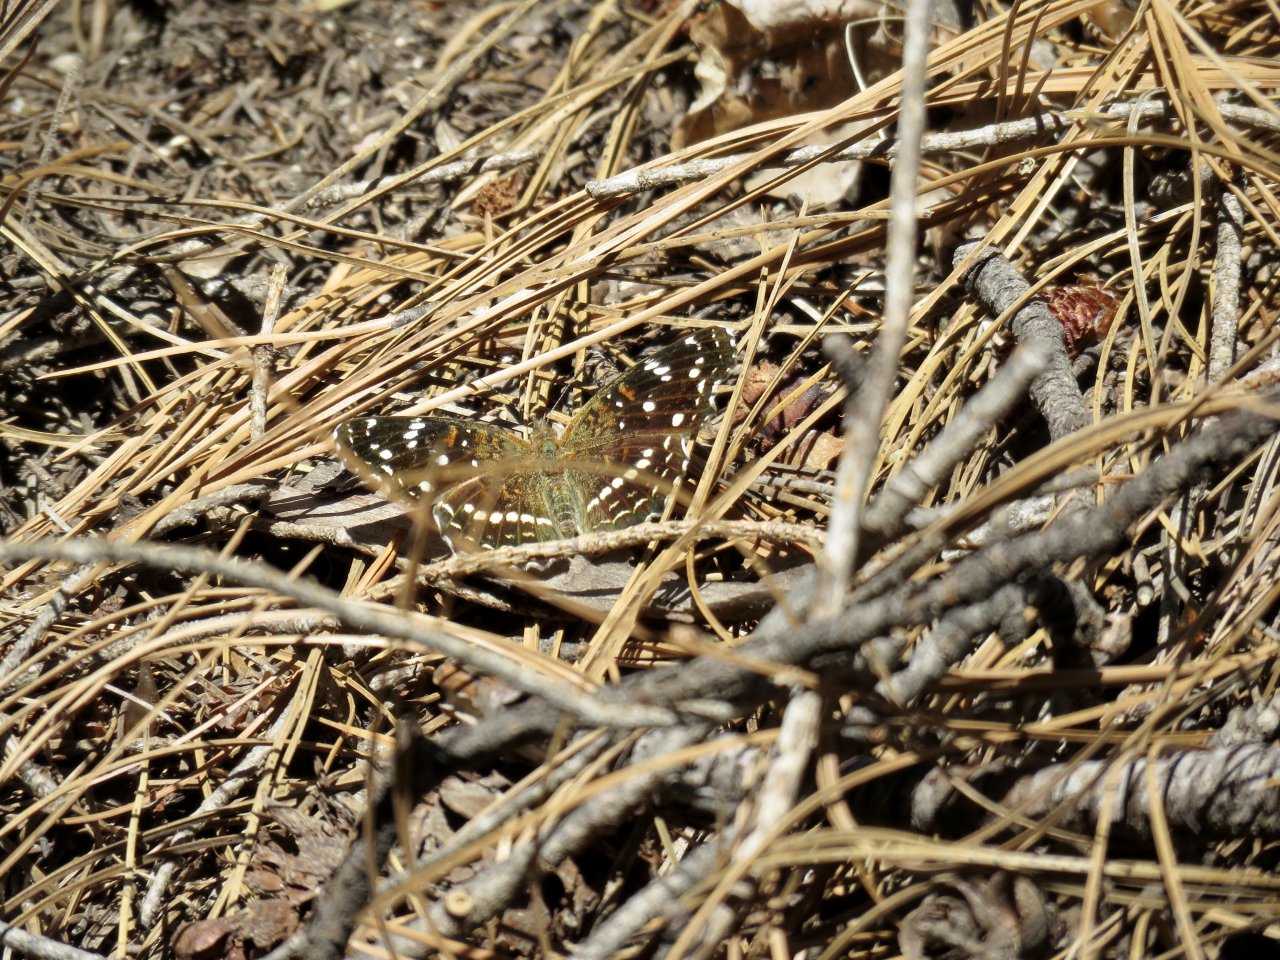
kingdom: Animalia
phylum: Arthropoda
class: Insecta
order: Lepidoptera
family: Nymphalidae
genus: Anthanassa
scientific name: Anthanassa texana
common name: Texan Crescent
